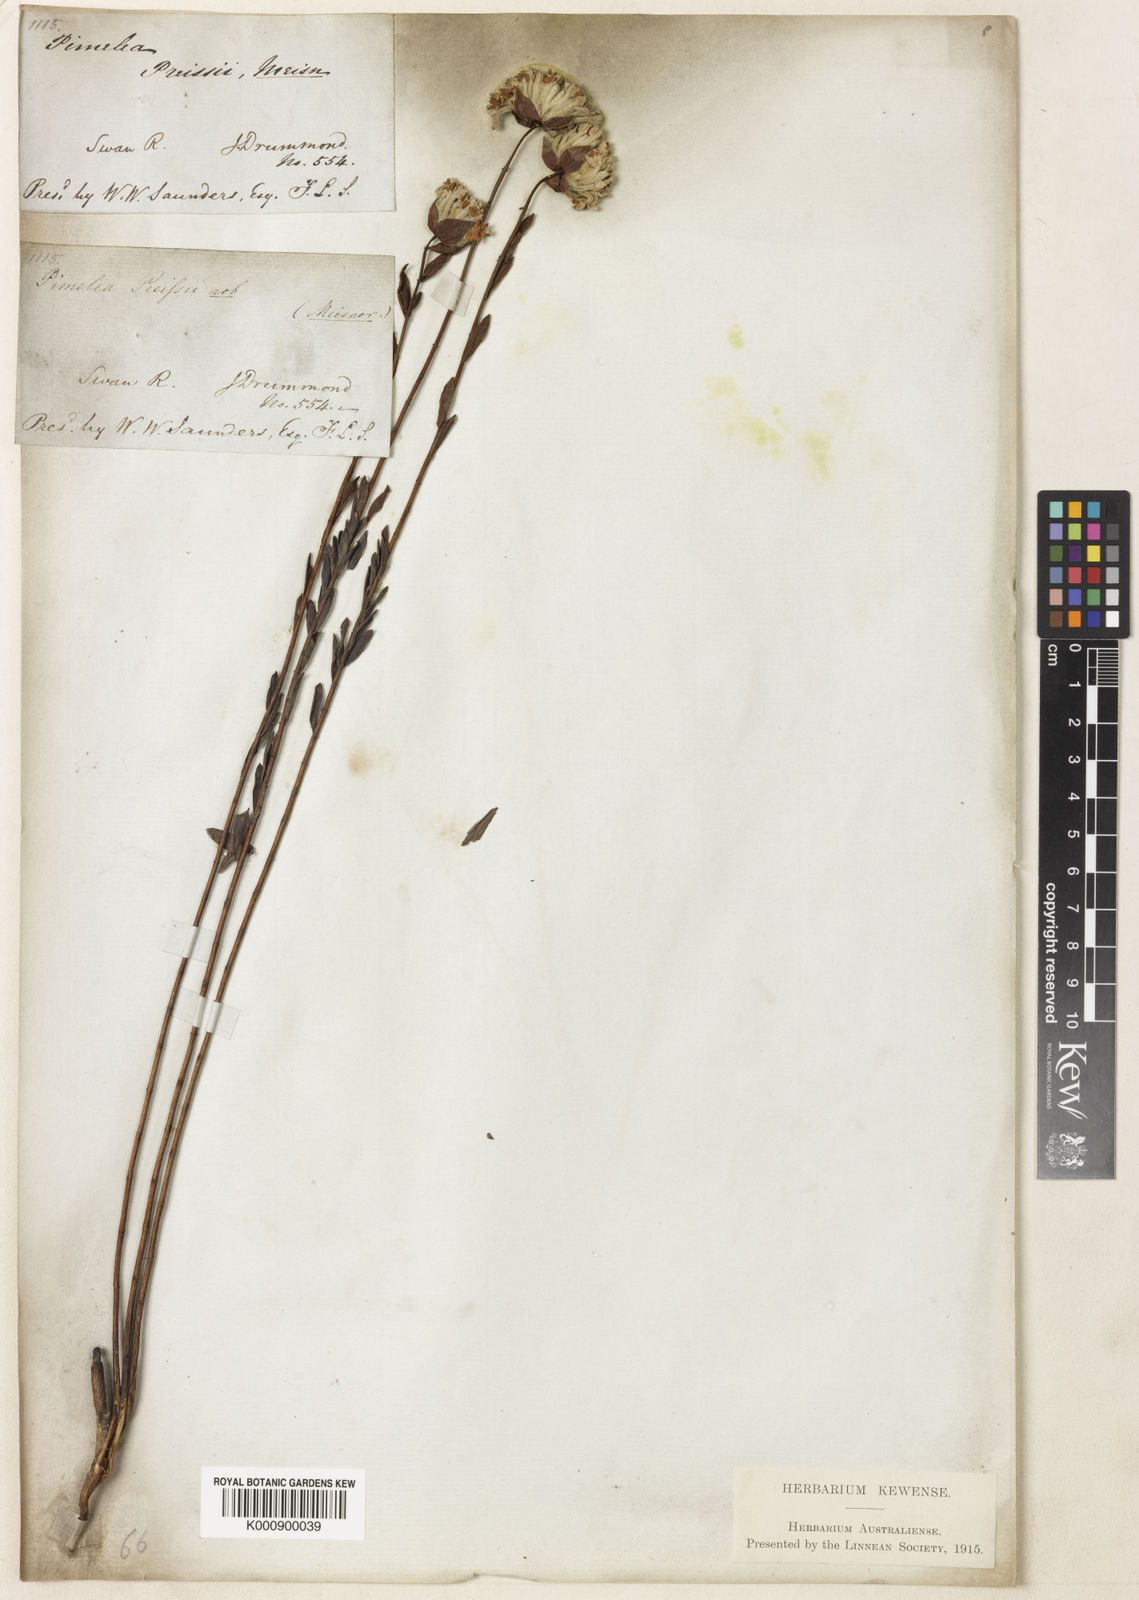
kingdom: Plantae
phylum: Tracheophyta
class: Magnoliopsida
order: Malvales
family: Thymelaeaceae
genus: Pimelea
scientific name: Pimelea preissii
